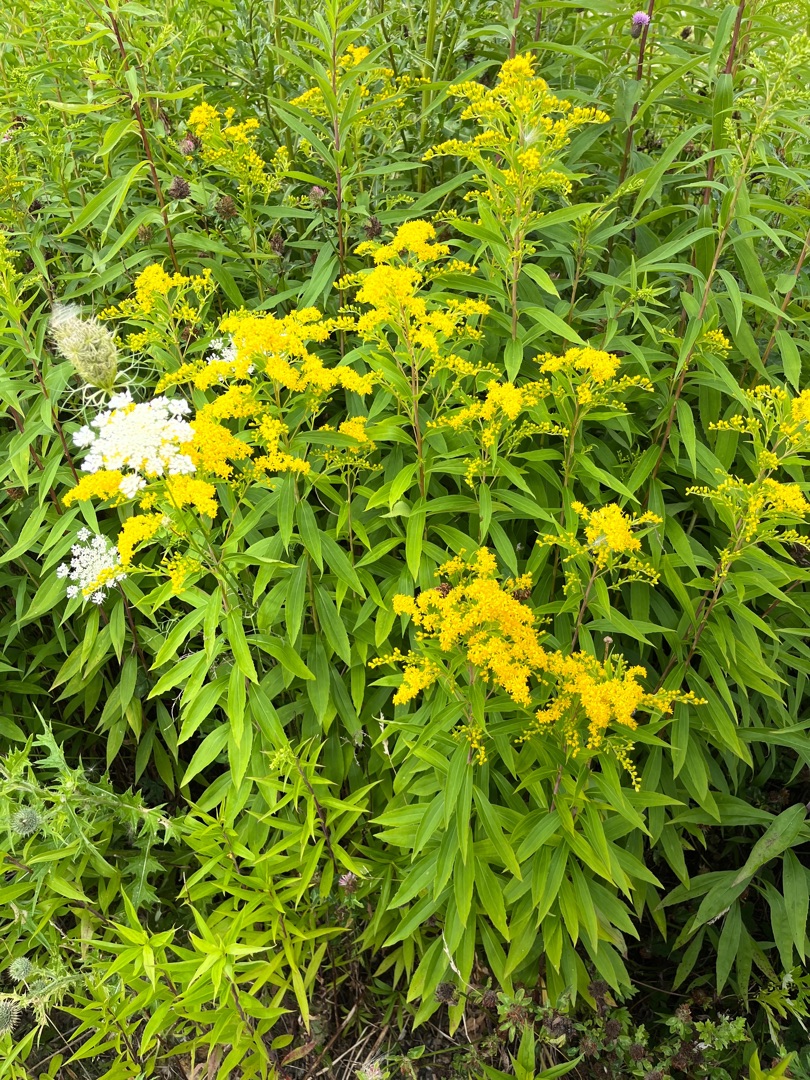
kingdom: Plantae
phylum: Tracheophyta
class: Magnoliopsida
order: Asterales
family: Asteraceae
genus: Solidago
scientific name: Solidago gigantea
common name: Sildig gyldenris
